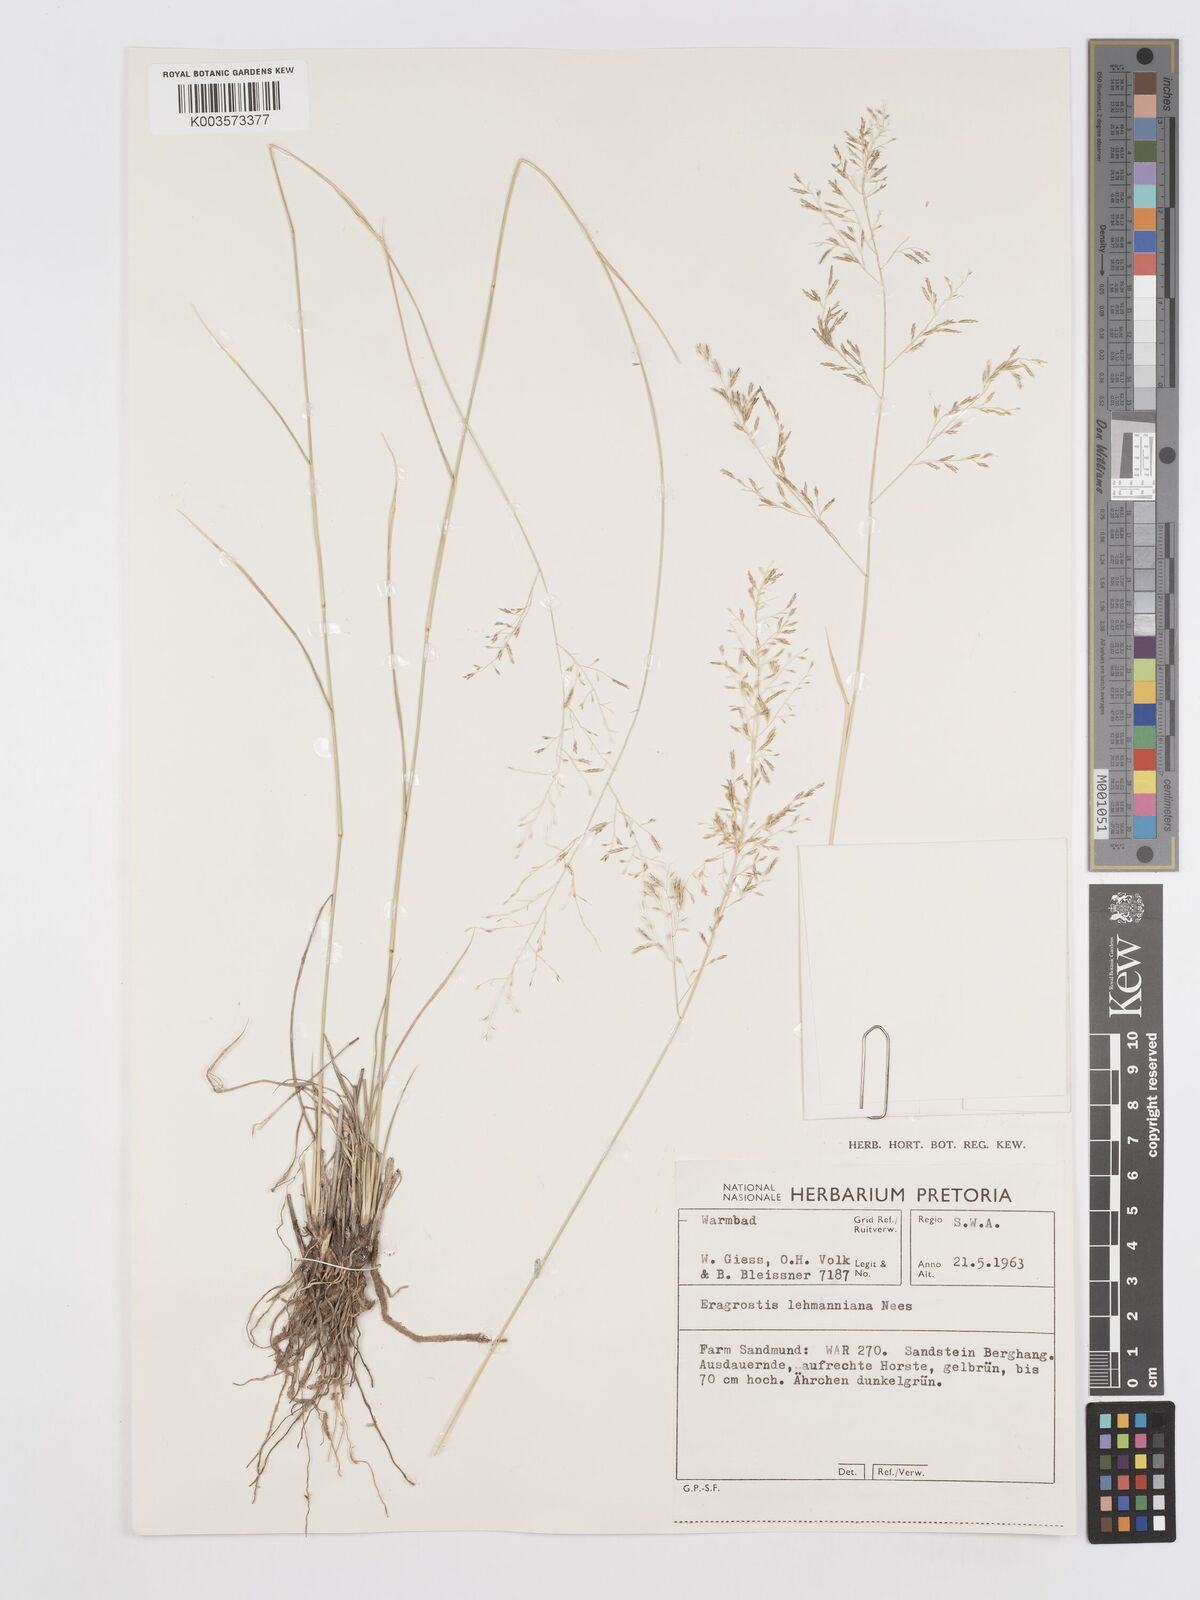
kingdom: Plantae
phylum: Tracheophyta
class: Liliopsida
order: Poales
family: Poaceae
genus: Eragrostis
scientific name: Eragrostis lehmanniana
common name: Lehmann lovegrass
